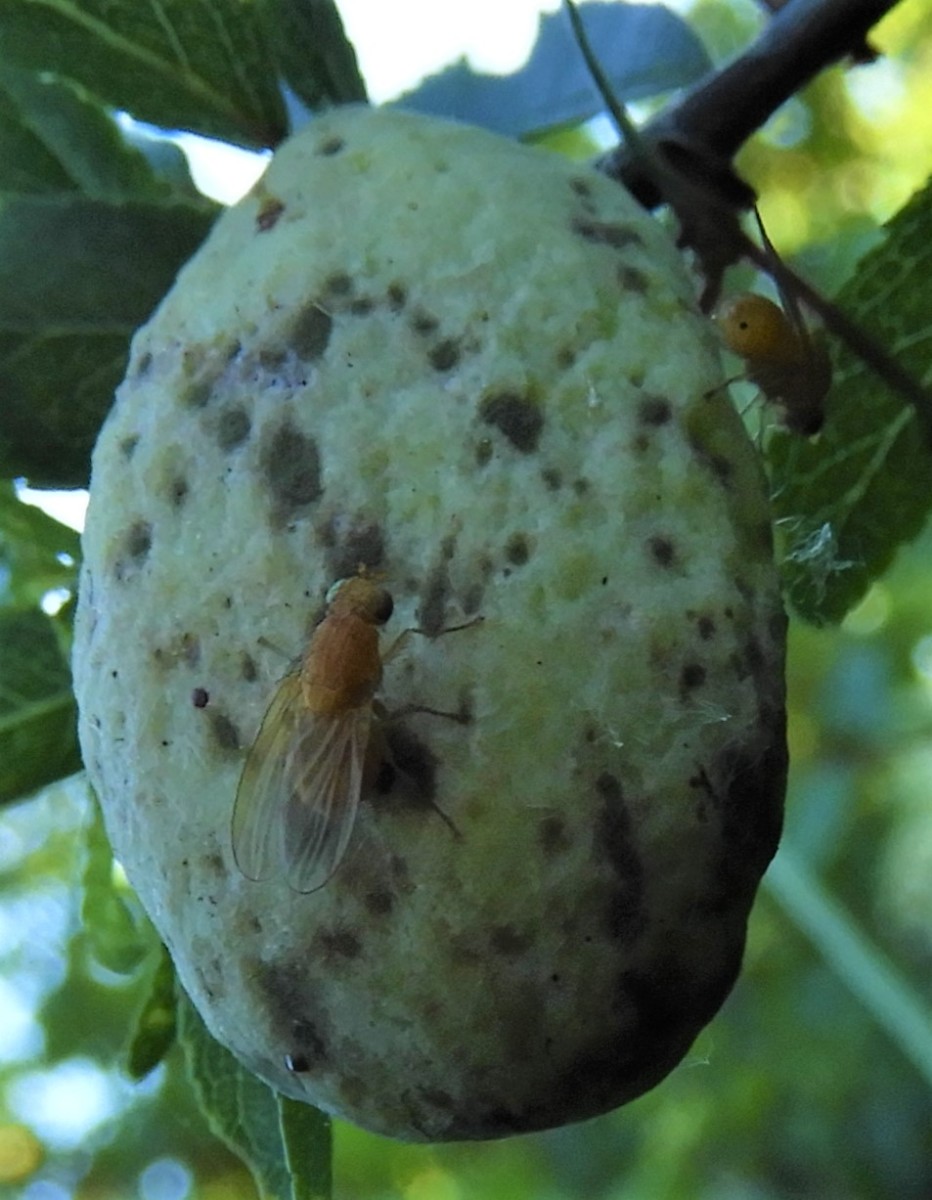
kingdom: Fungi
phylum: Ascomycota
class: Taphrinomycetes
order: Taphrinales
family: Taphrinaceae
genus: Taphrina
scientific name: Taphrina pruni
